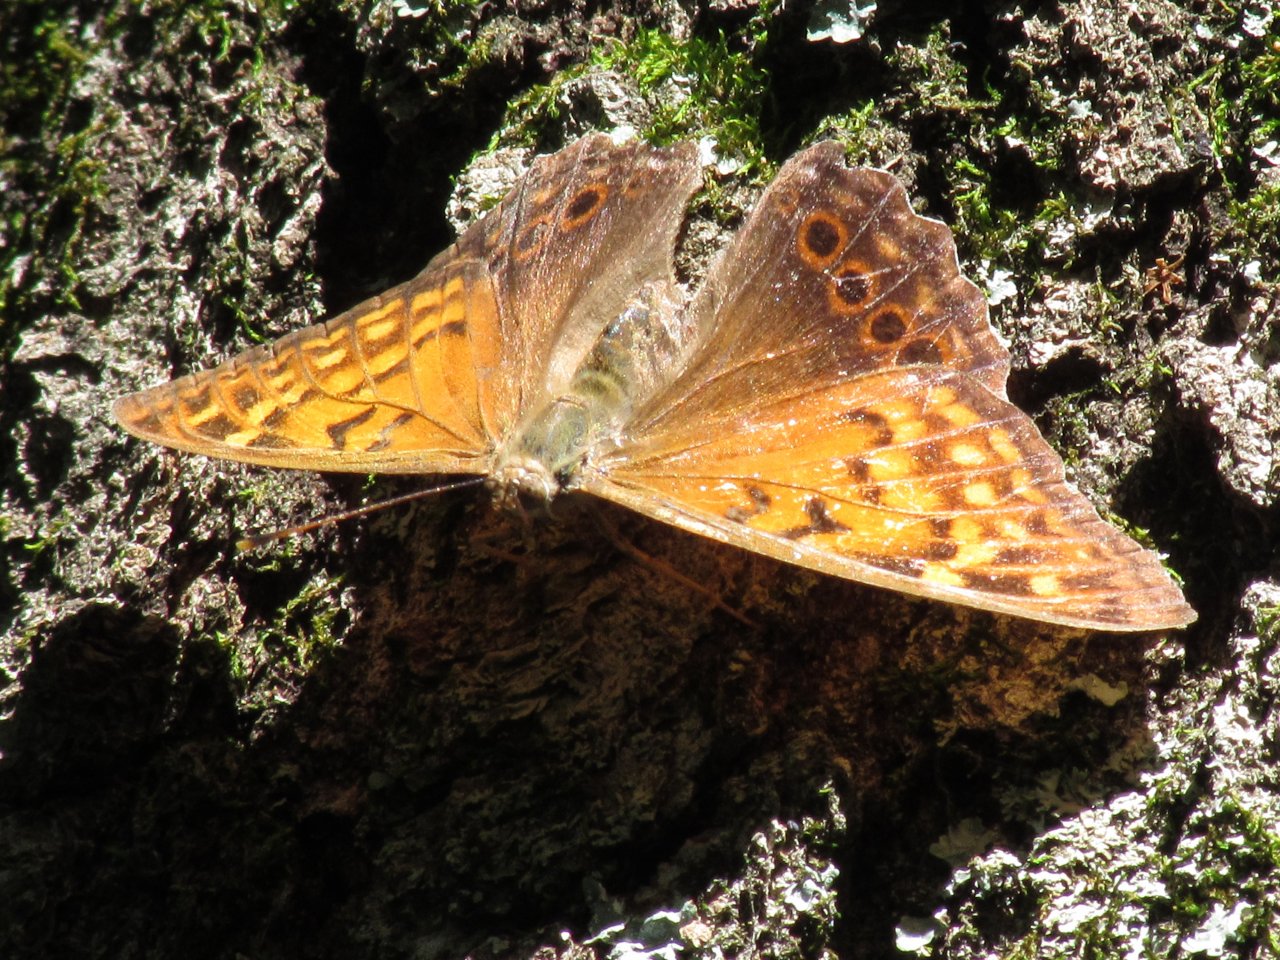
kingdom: Animalia
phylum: Arthropoda
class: Insecta
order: Lepidoptera
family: Nymphalidae
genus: Asterocampa
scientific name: Asterocampa clyton
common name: Tawny Emperor
